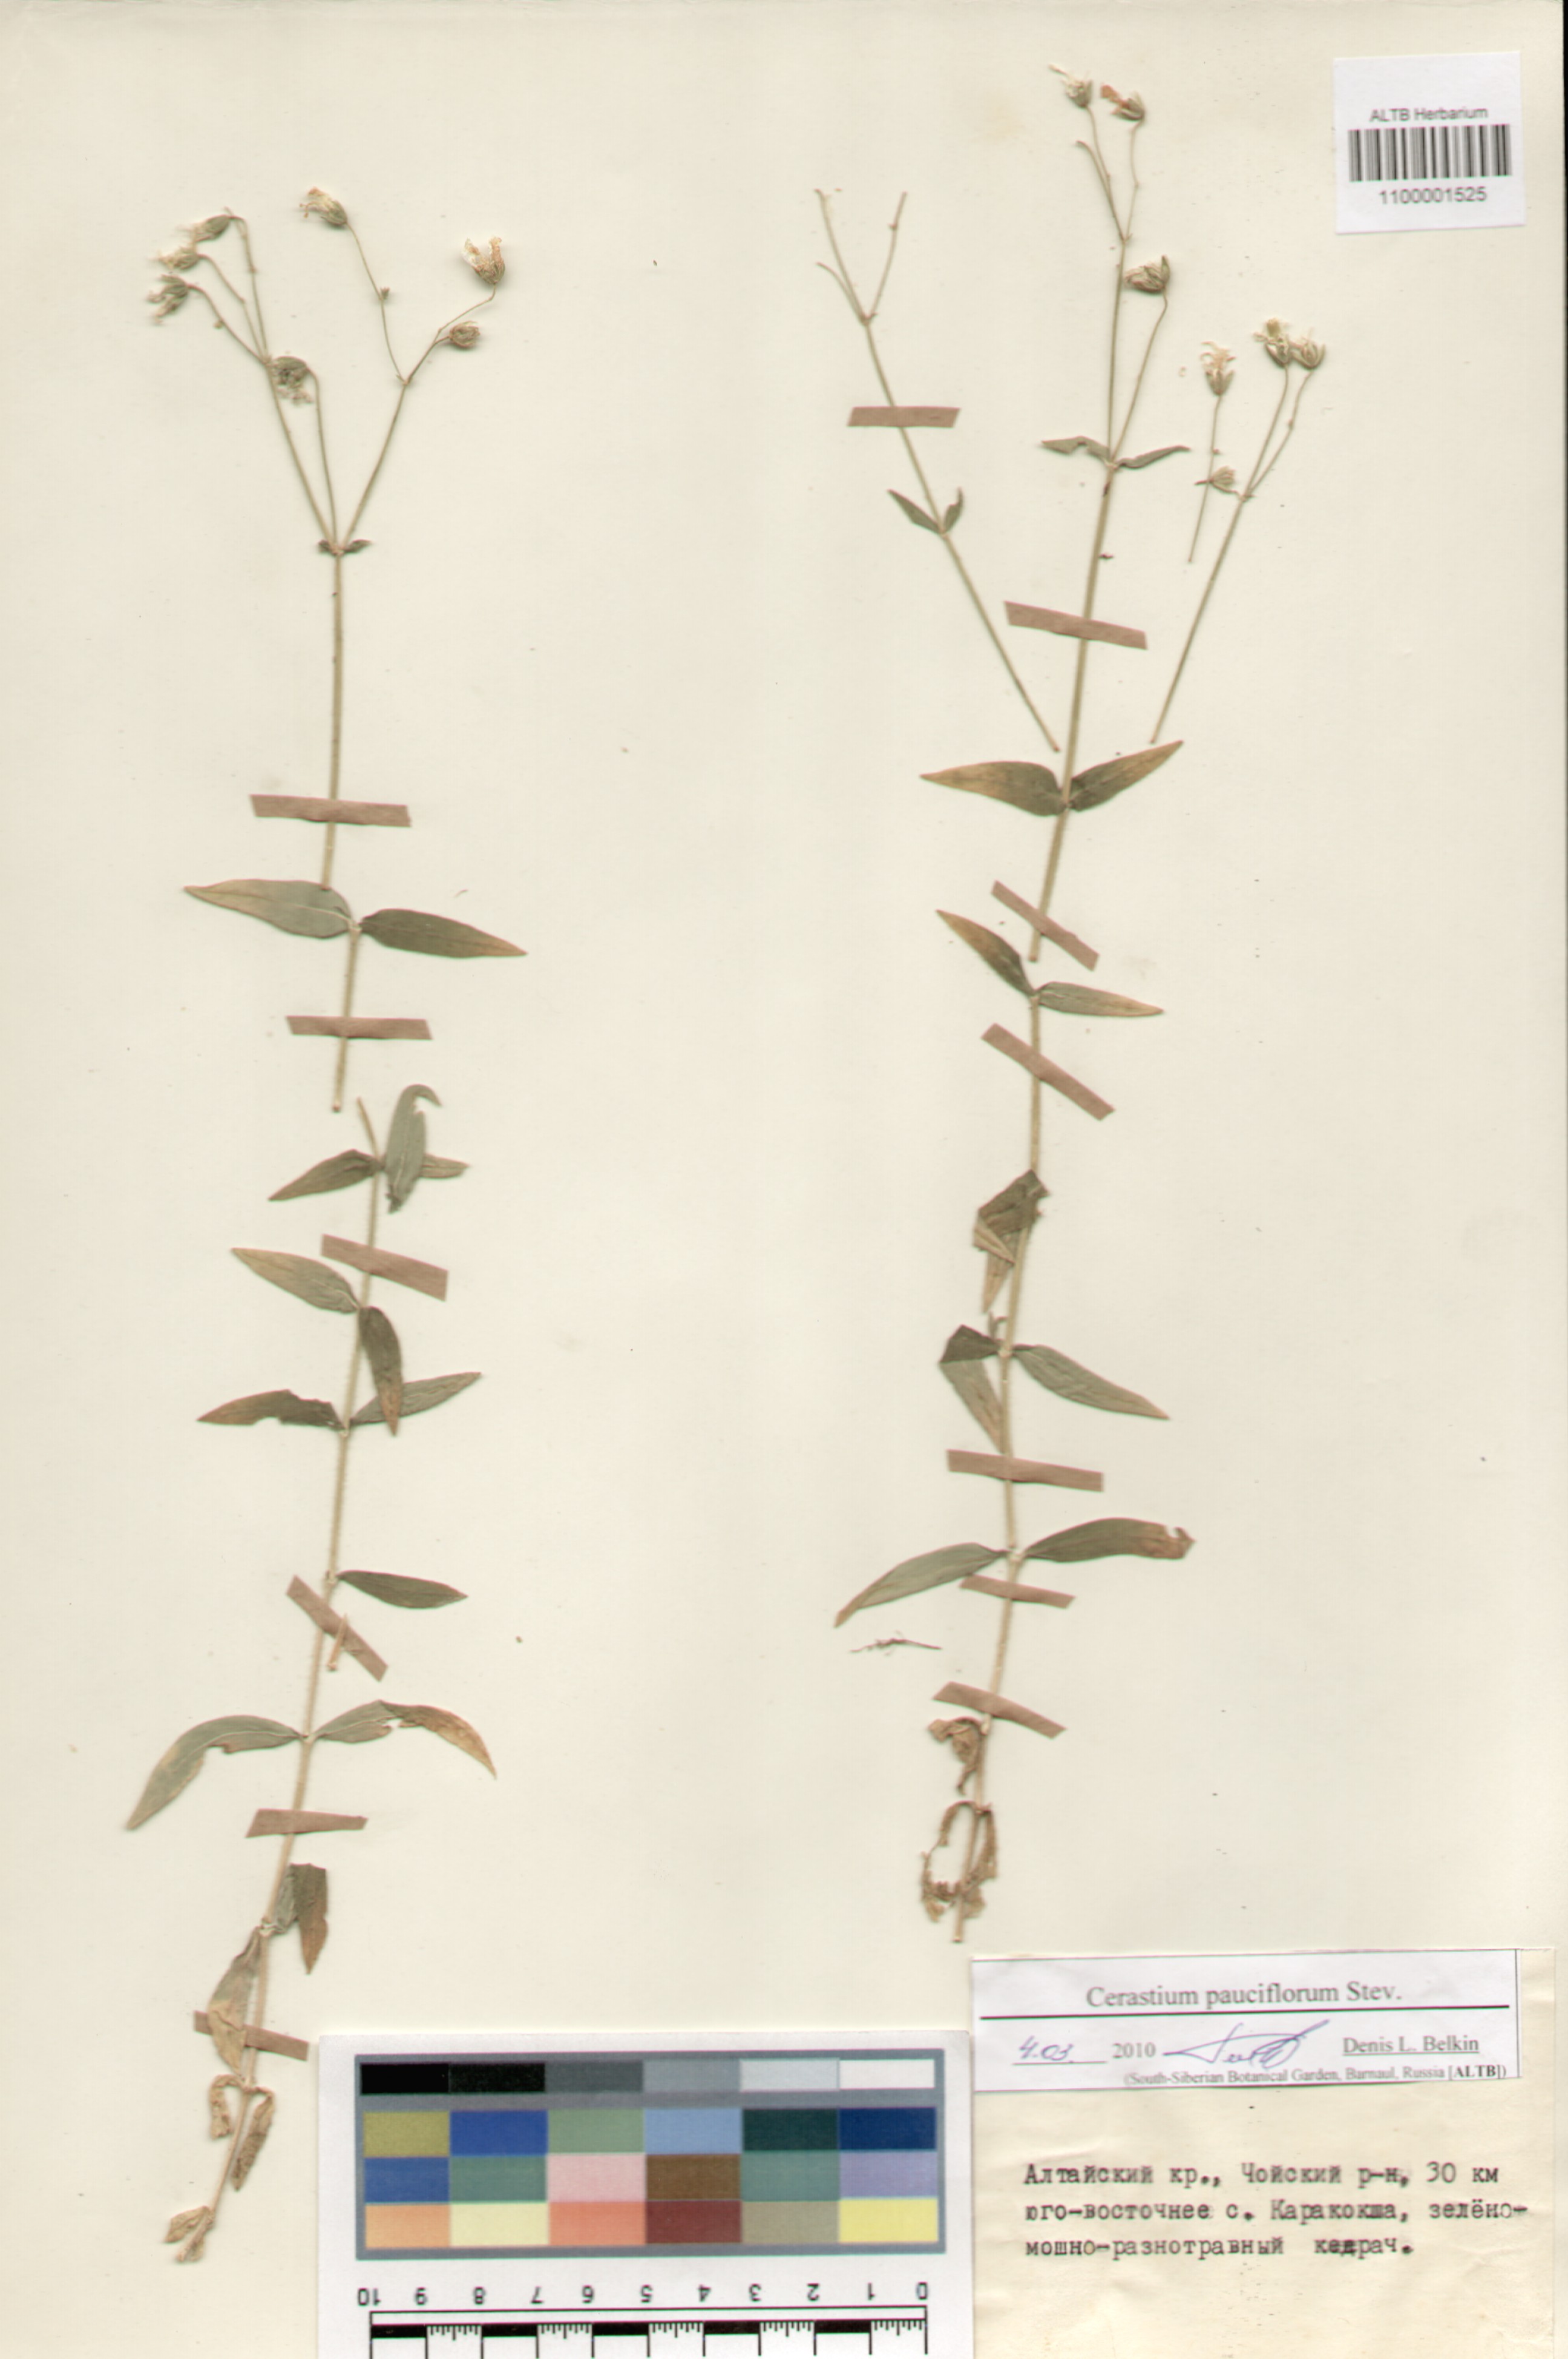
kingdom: Plantae
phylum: Tracheophyta
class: Magnoliopsida
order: Caryophyllales
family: Caryophyllaceae
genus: Cerastium
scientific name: Cerastium pauciflorum
